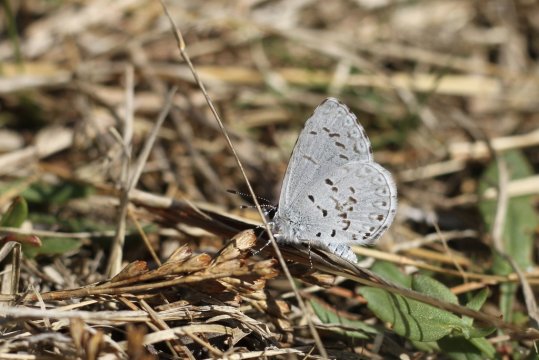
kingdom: Animalia
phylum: Arthropoda
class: Insecta
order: Lepidoptera
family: Lycaenidae
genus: Celastrina
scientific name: Celastrina ladon
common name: Spring Azure
